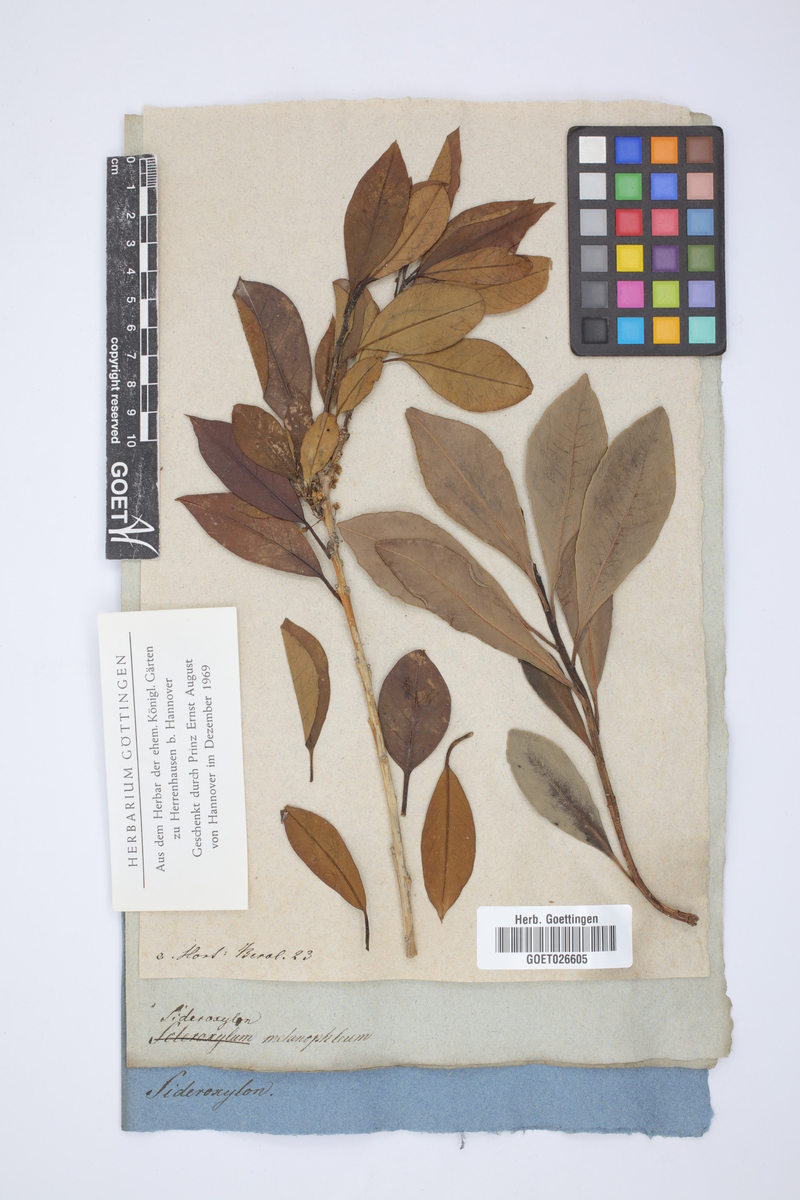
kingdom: Plantae
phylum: Tracheophyta
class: Magnoliopsida
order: Ericales
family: Primulaceae
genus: Myrsine
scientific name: Myrsine melanophloeos
